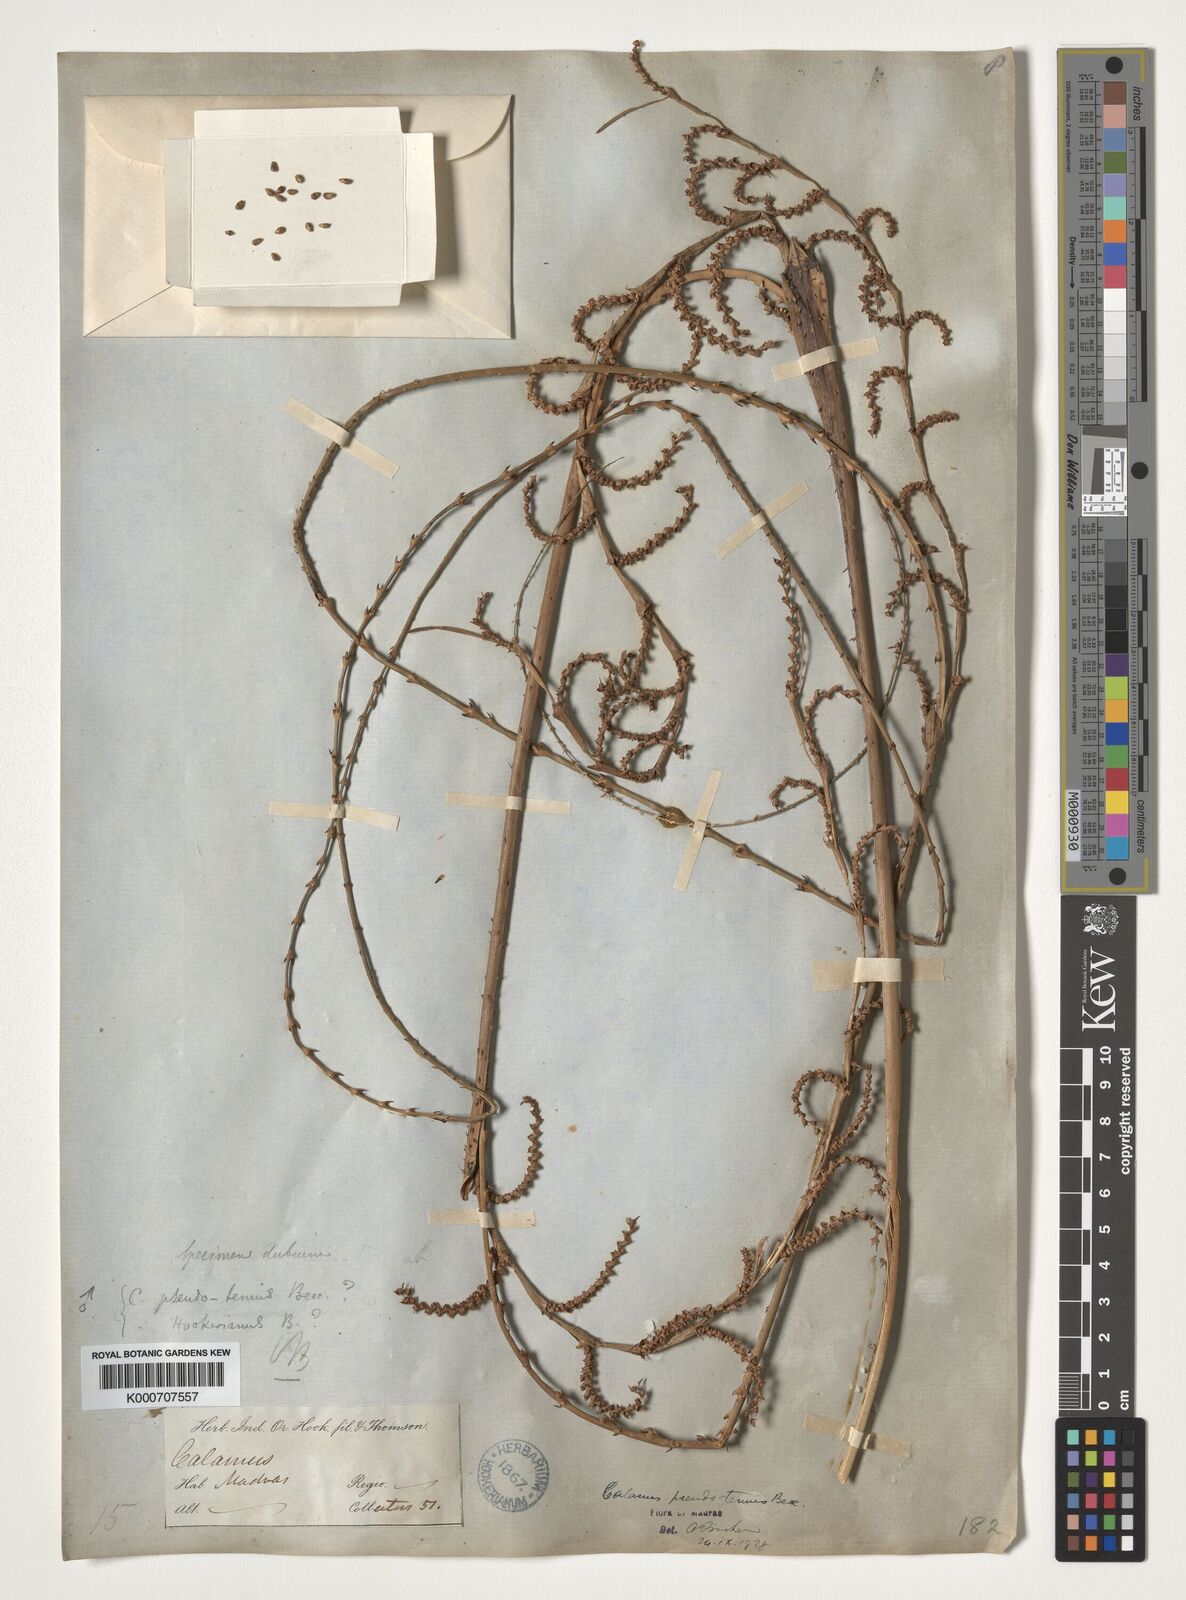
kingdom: Plantae
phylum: Tracheophyta
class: Liliopsida
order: Arecales
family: Arecaceae
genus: Calamus
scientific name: Calamus pseudotenuis
